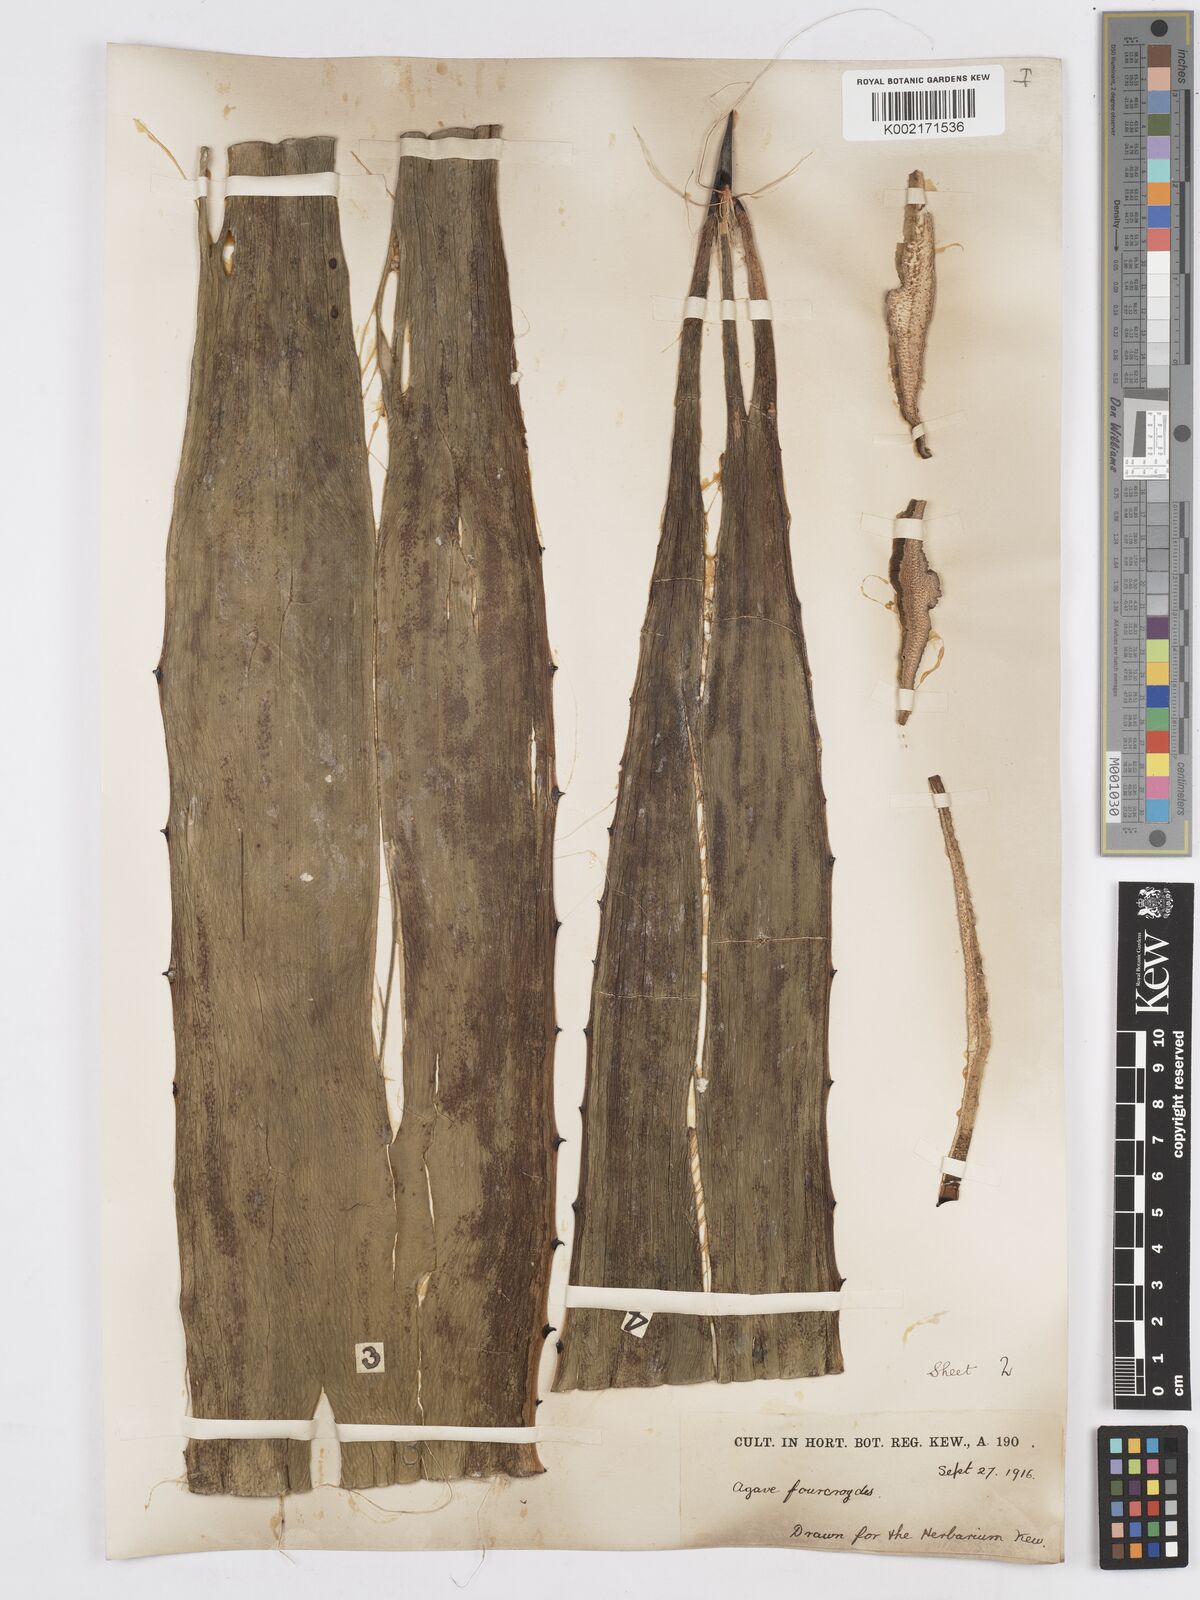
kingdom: Plantae
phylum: Tracheophyta
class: Liliopsida
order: Asparagales
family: Asparagaceae
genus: Agave
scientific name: Agave fourcroydes
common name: Henequen
